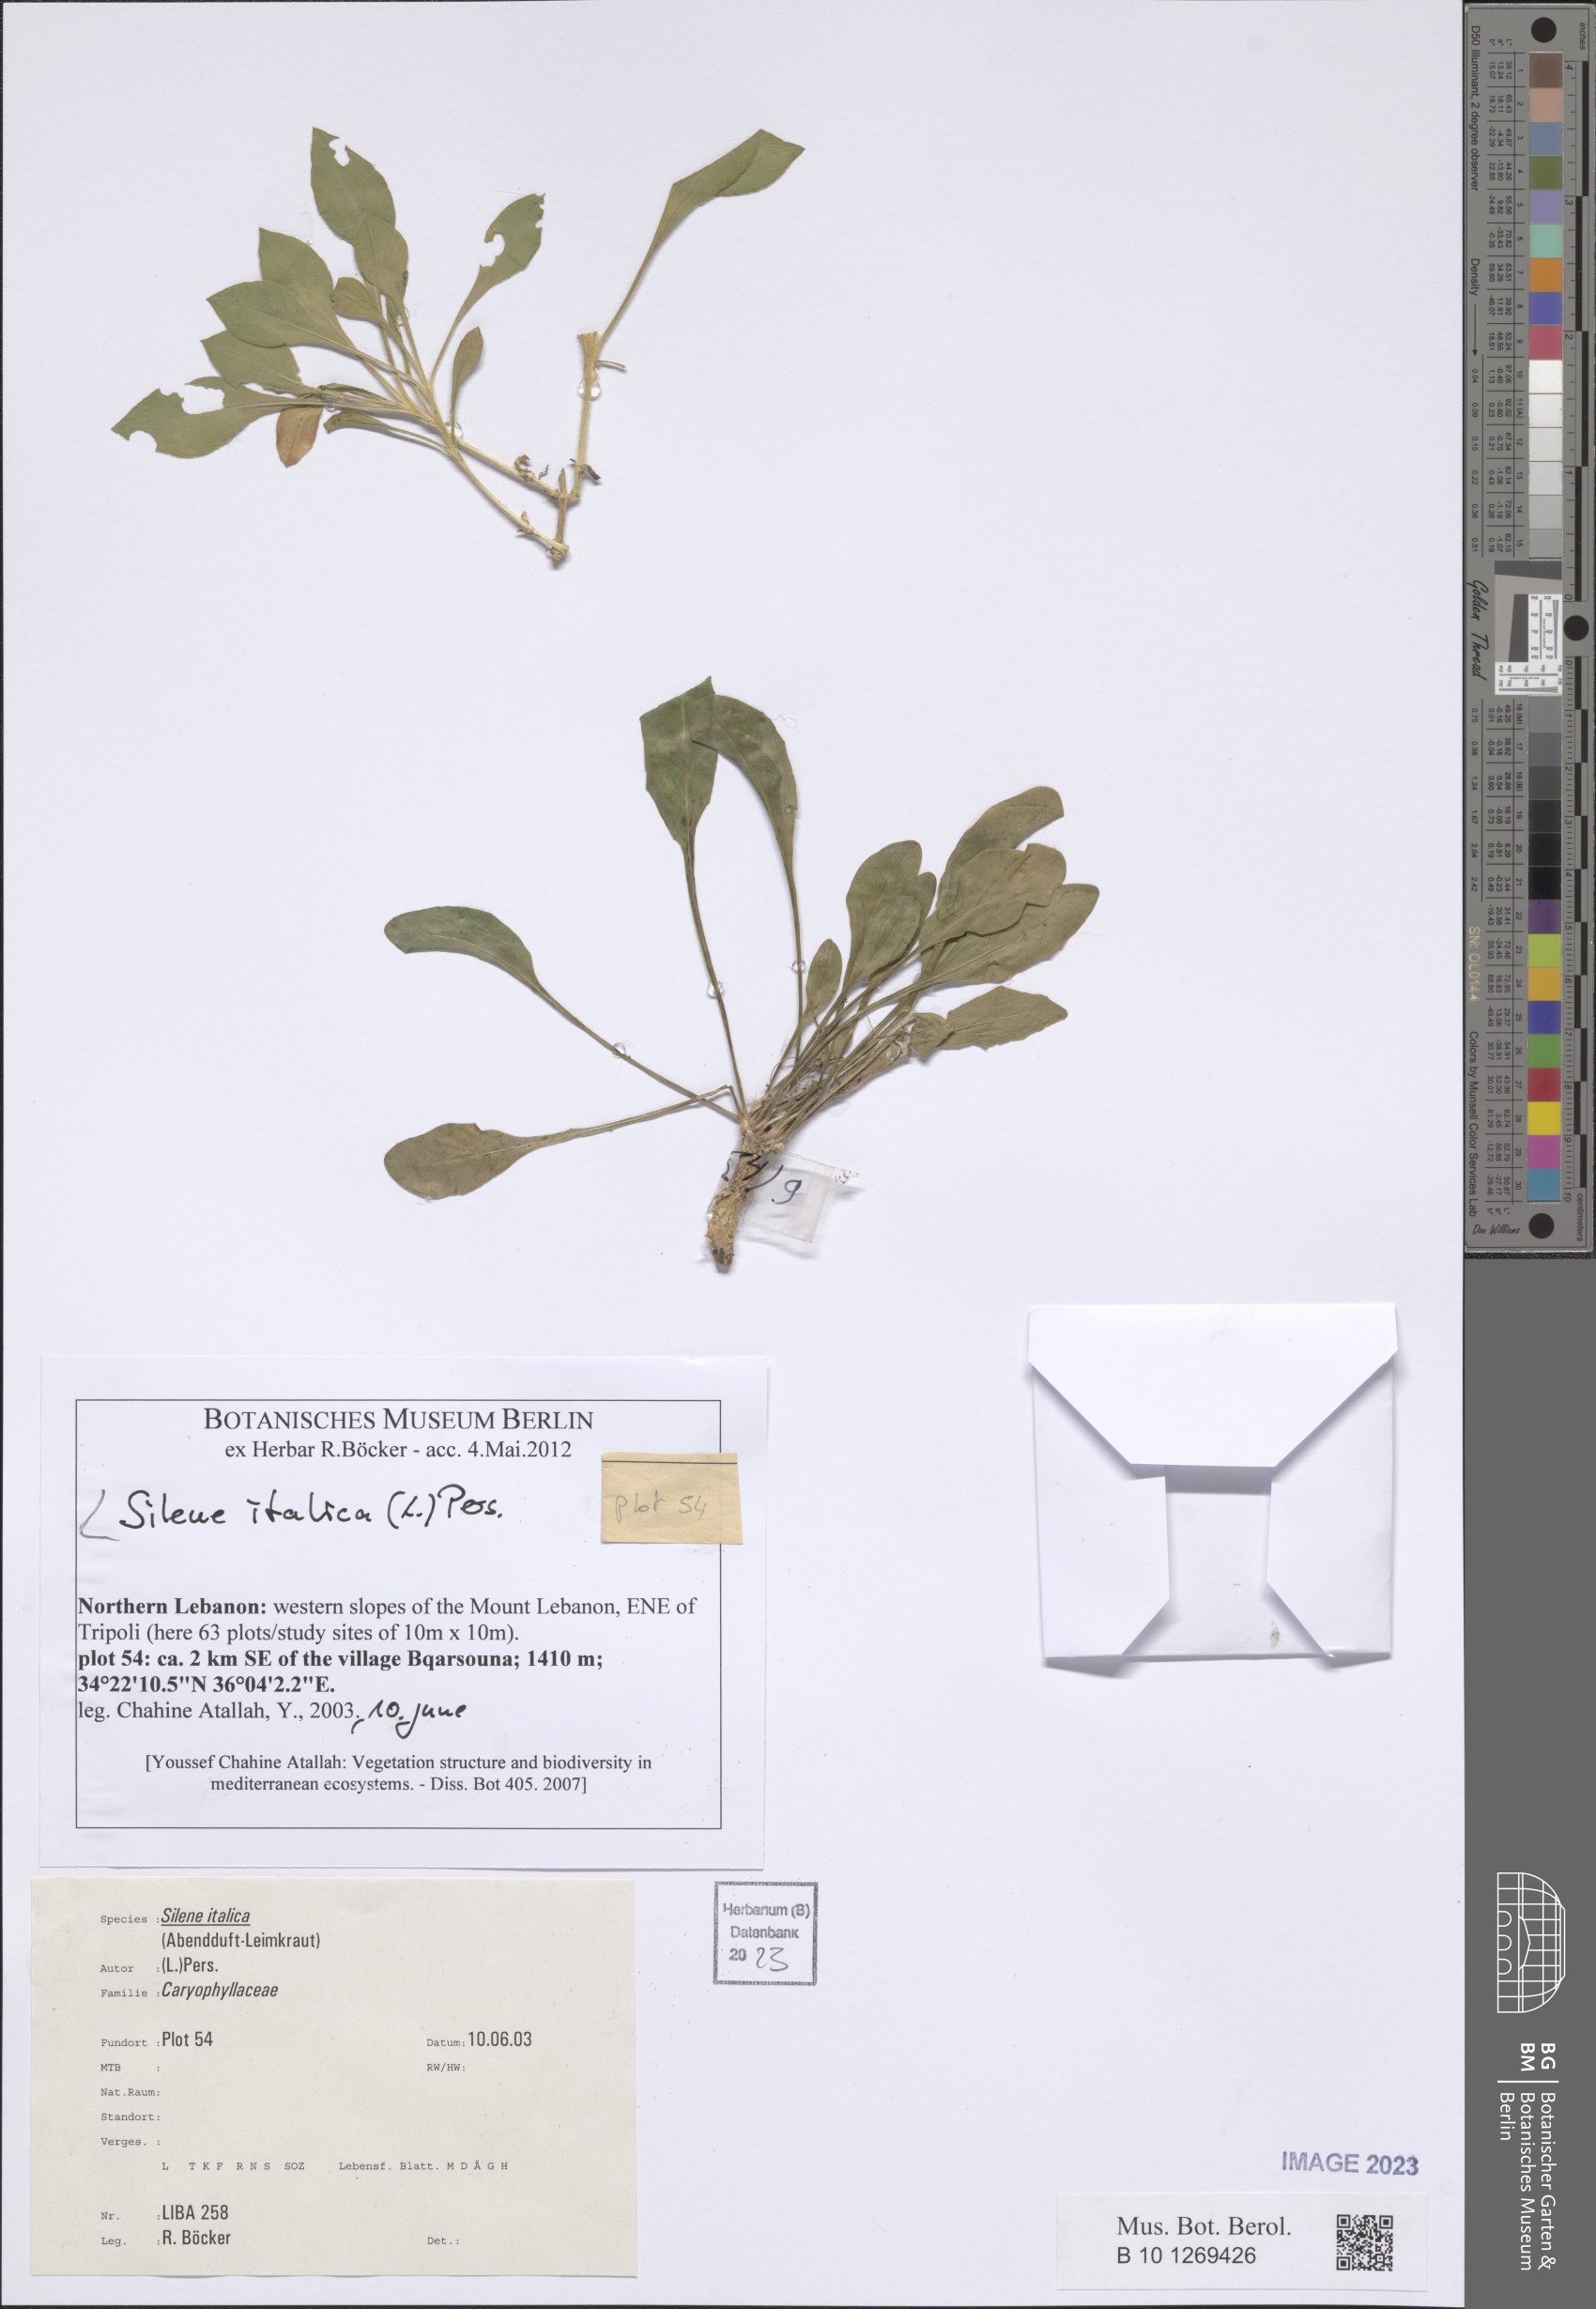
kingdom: Plantae
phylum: Tracheophyta
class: Magnoliopsida
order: Caryophyllales
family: Caryophyllaceae
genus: Silene
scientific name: Silene italica
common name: Italian catchfly
